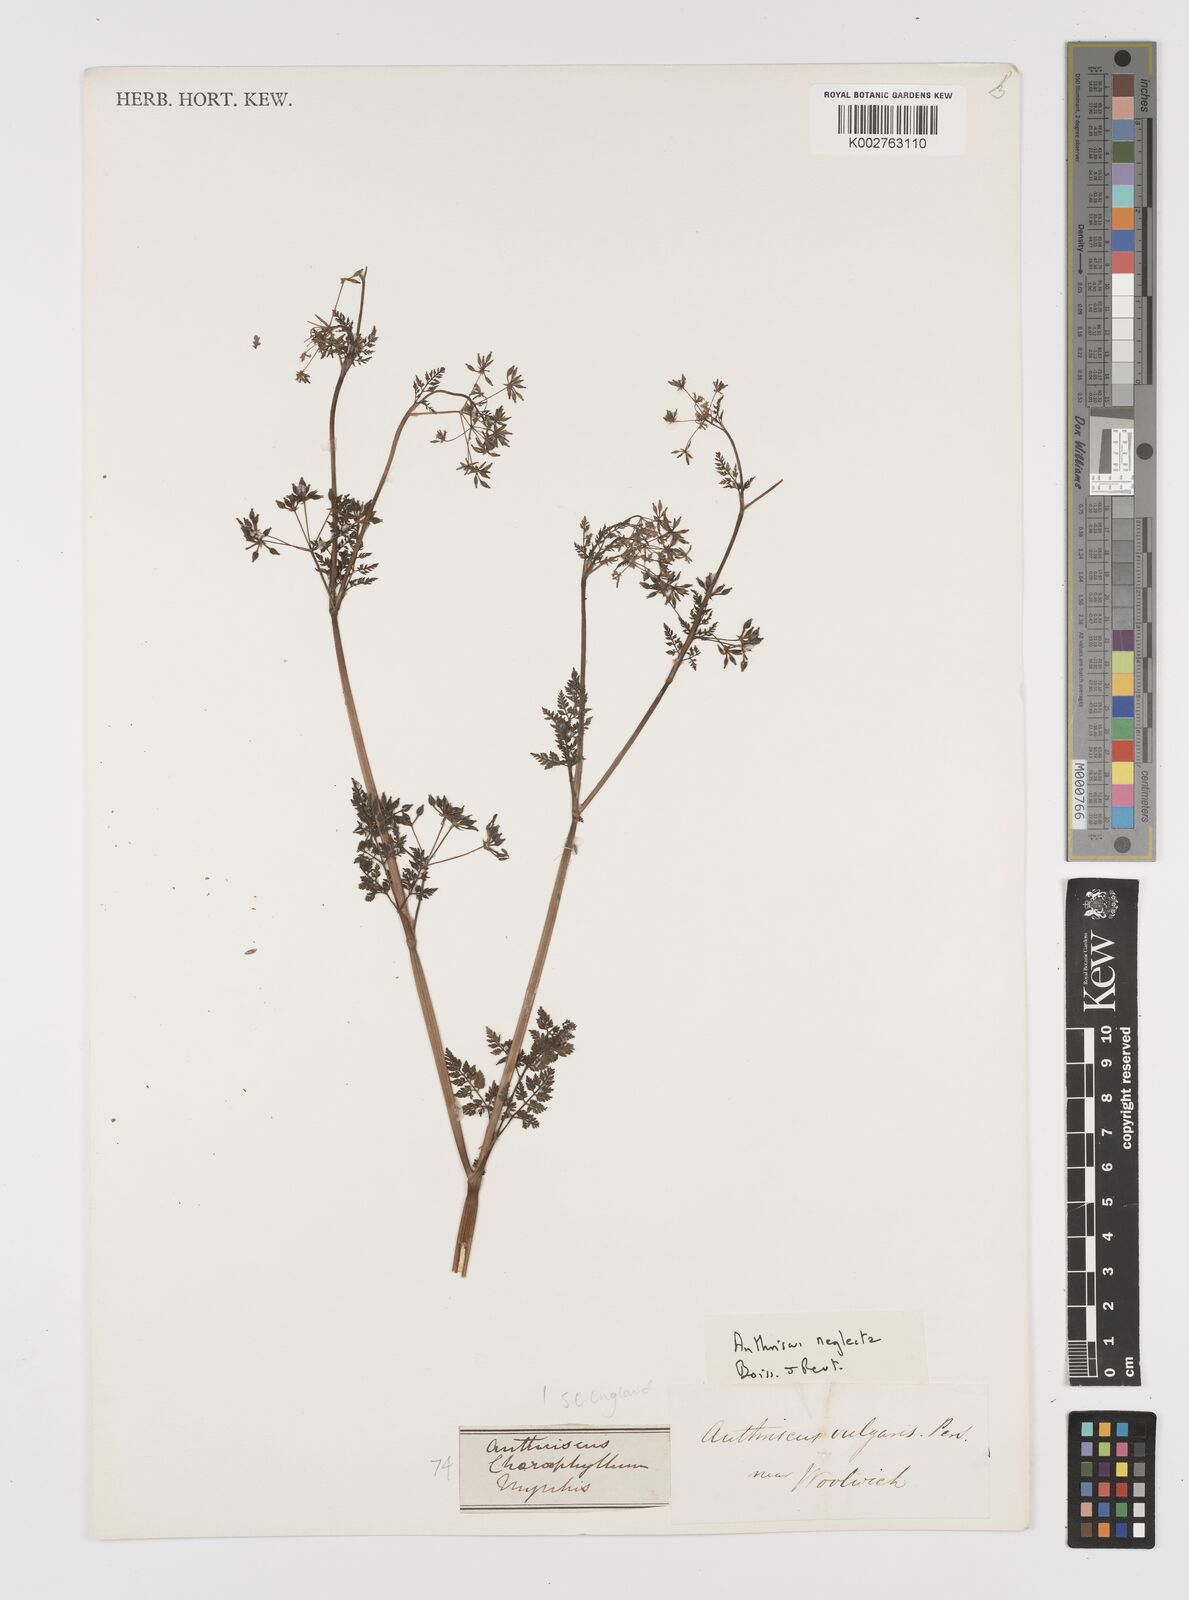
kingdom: Plantae
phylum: Tracheophyta
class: Magnoliopsida
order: Apiales
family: Apiaceae
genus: Anthriscus
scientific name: Anthriscus caucalis
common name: Bur chervil
